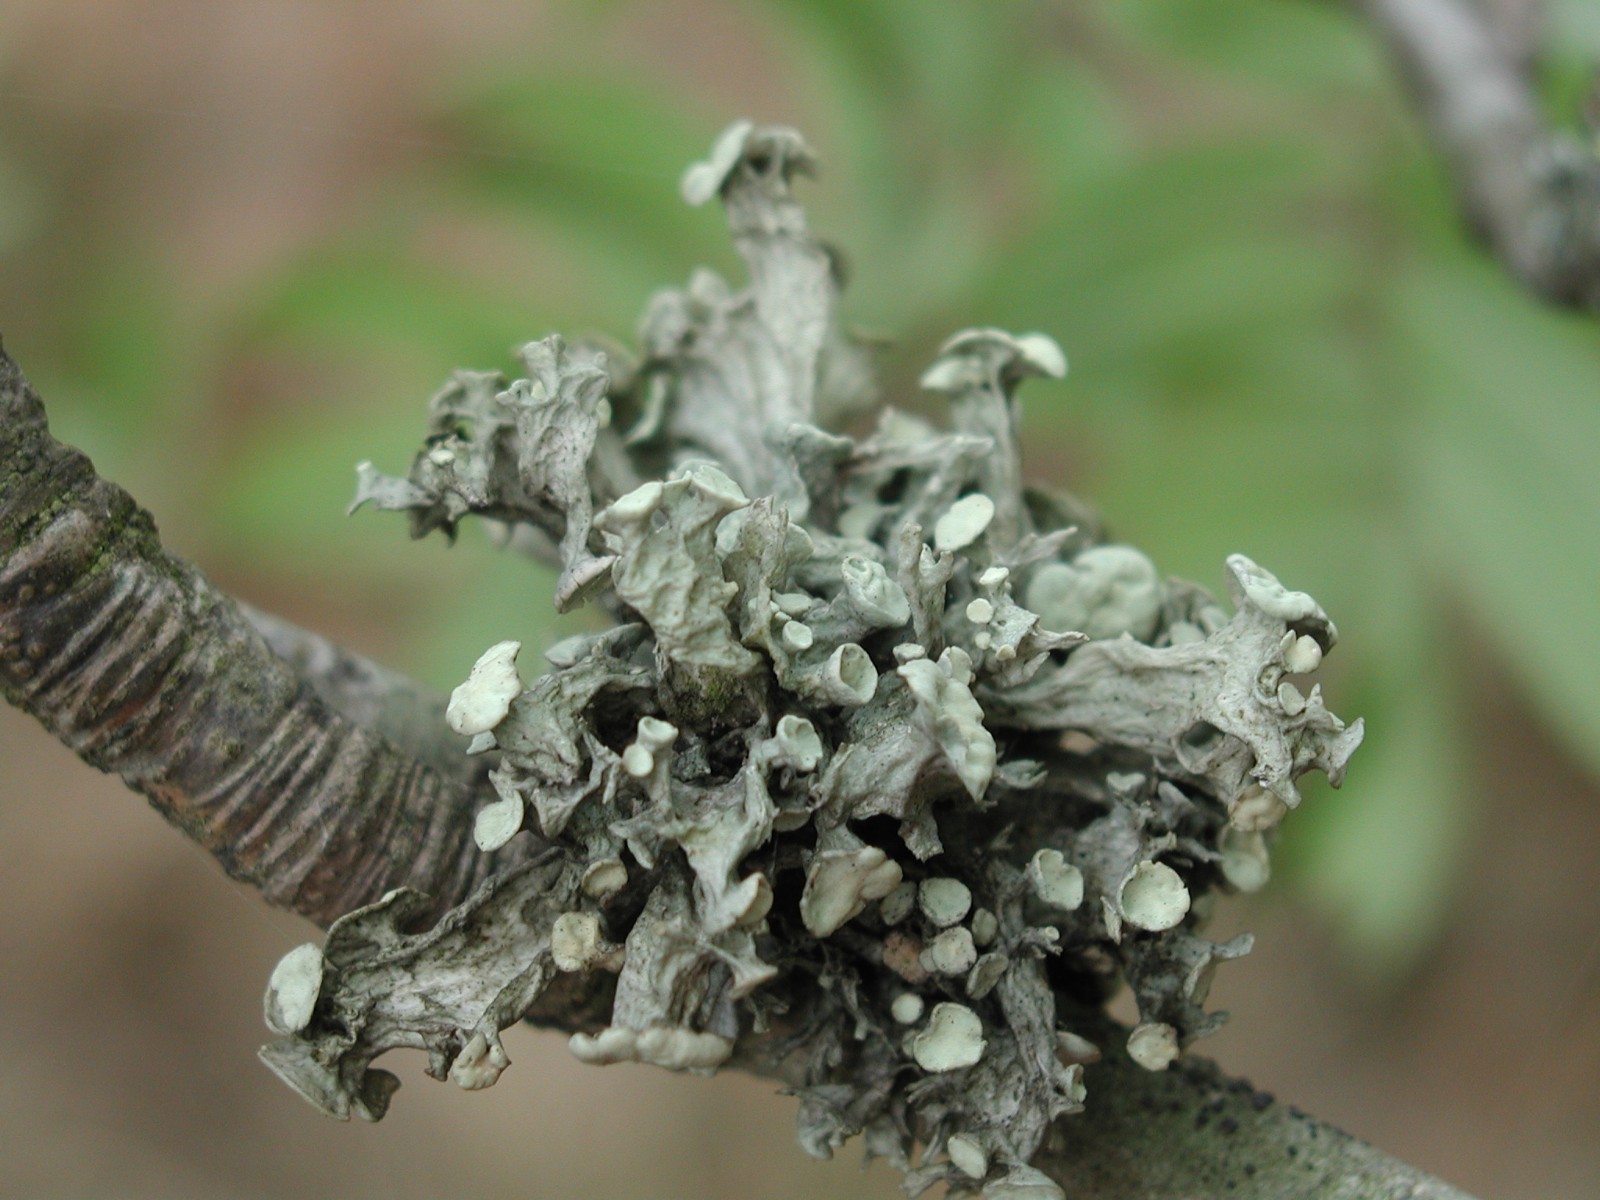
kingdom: Fungi
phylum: Ascomycota
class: Lecanoromycetes
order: Lecanorales
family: Ramalinaceae
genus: Ramalina
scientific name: Ramalina fastigiata
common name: tue-grenlav
